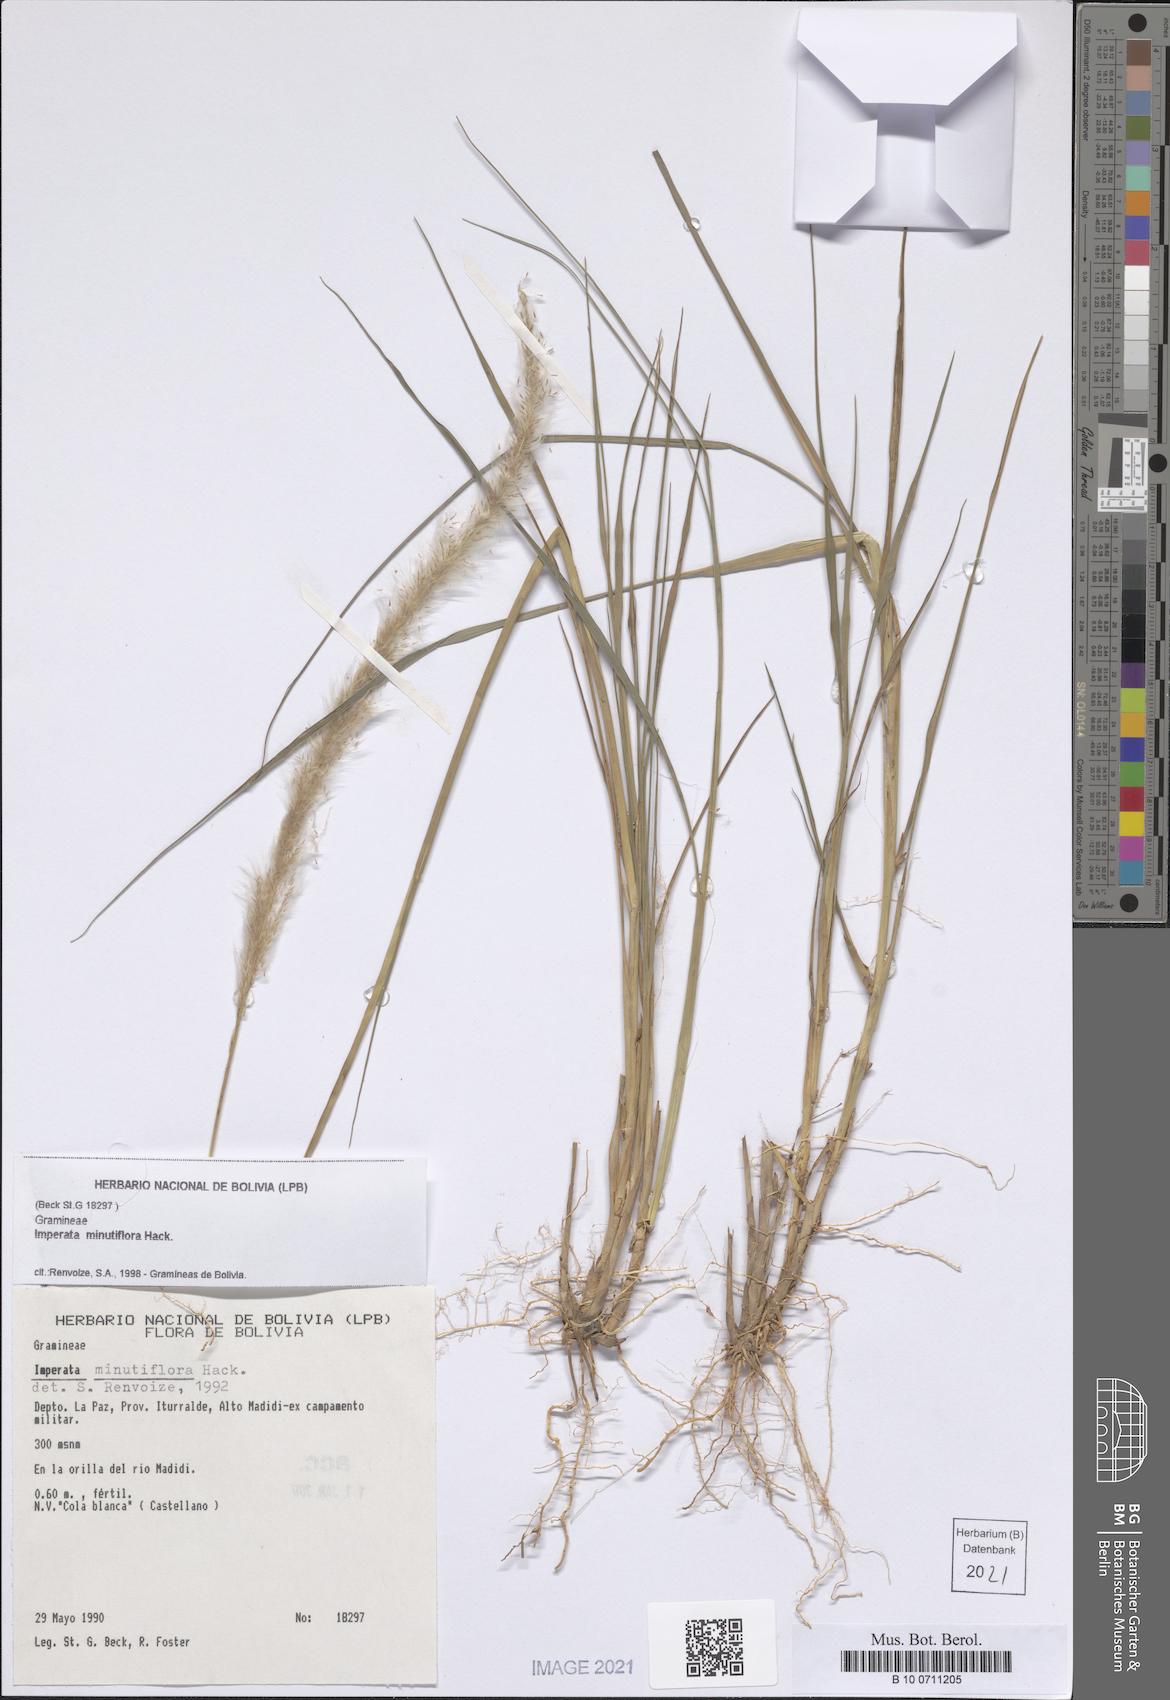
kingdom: Plantae
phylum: Tracheophyta
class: Liliopsida
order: Poales
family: Poaceae
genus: Imperata
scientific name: Imperata minutiflora
